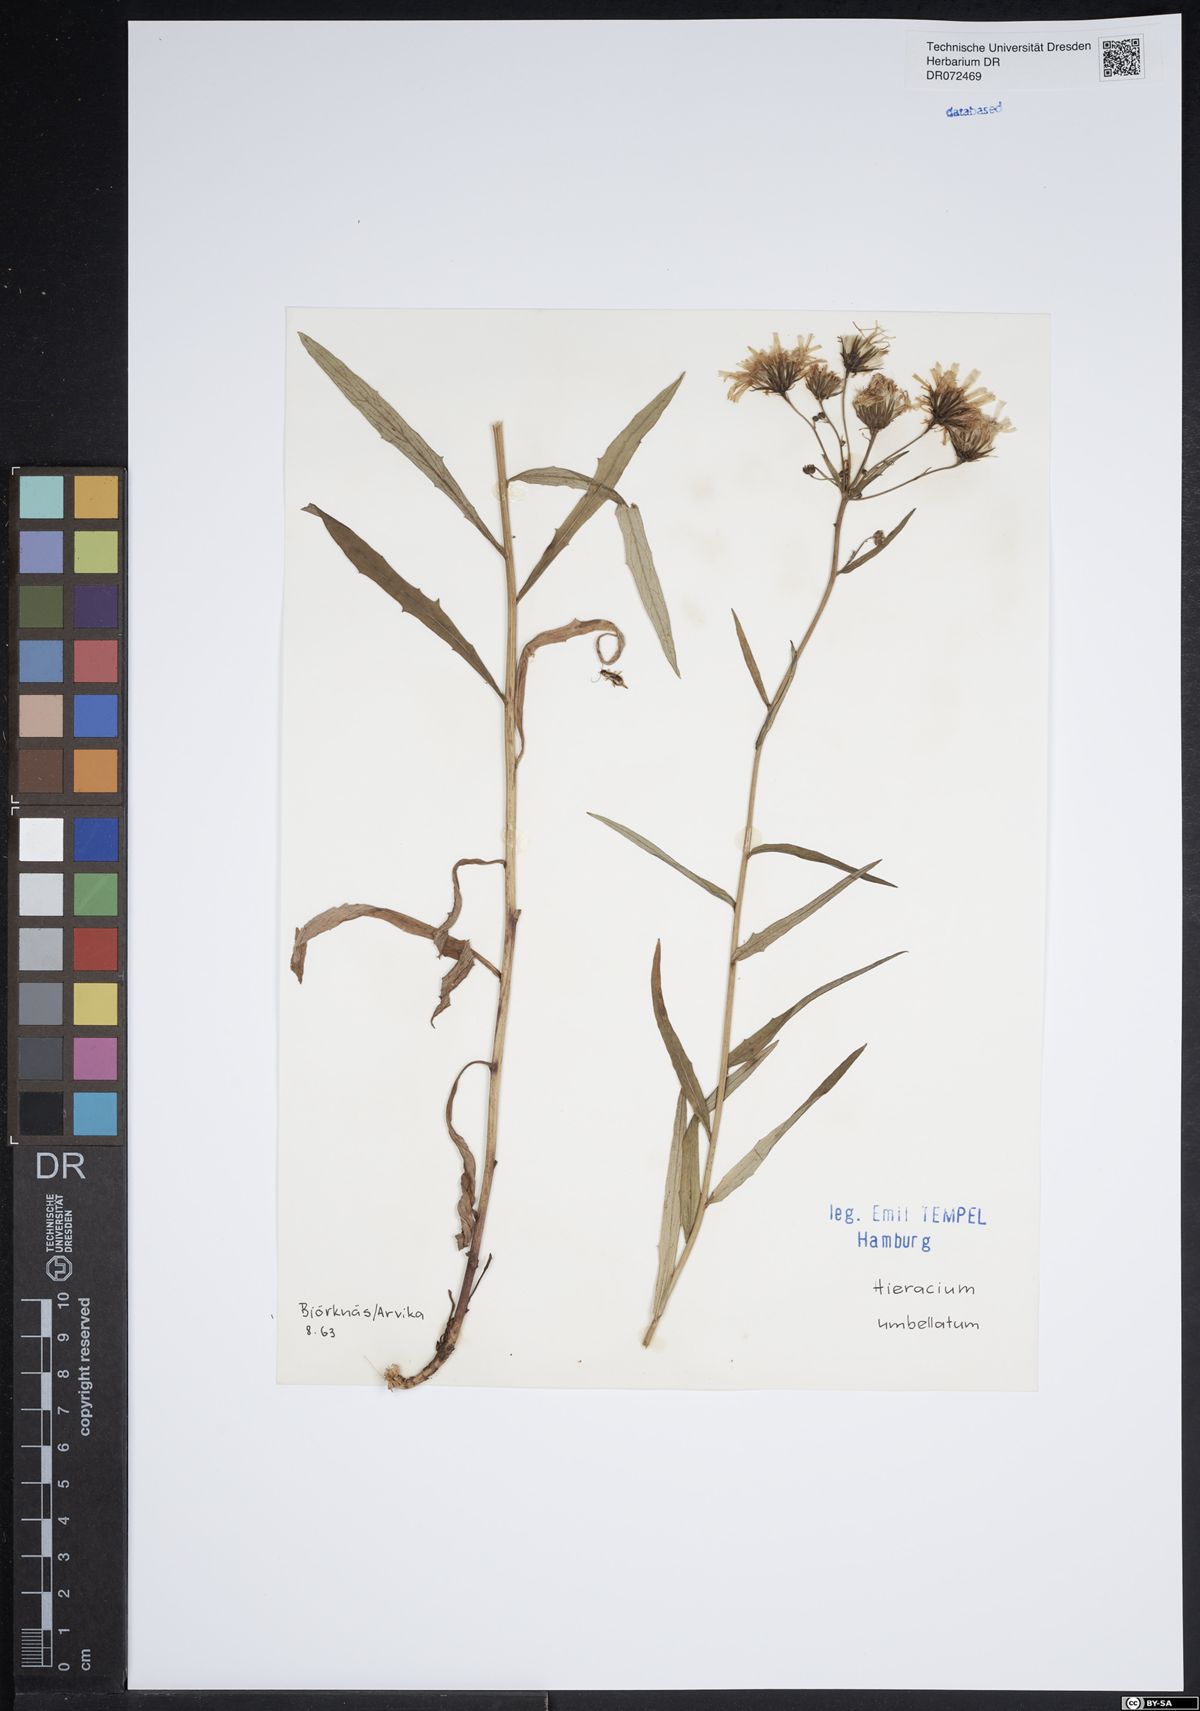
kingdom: Plantae
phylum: Tracheophyta
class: Magnoliopsida
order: Asterales
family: Asteraceae
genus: Hieracium
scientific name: Hieracium umbellatum
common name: Northern hawkweed
